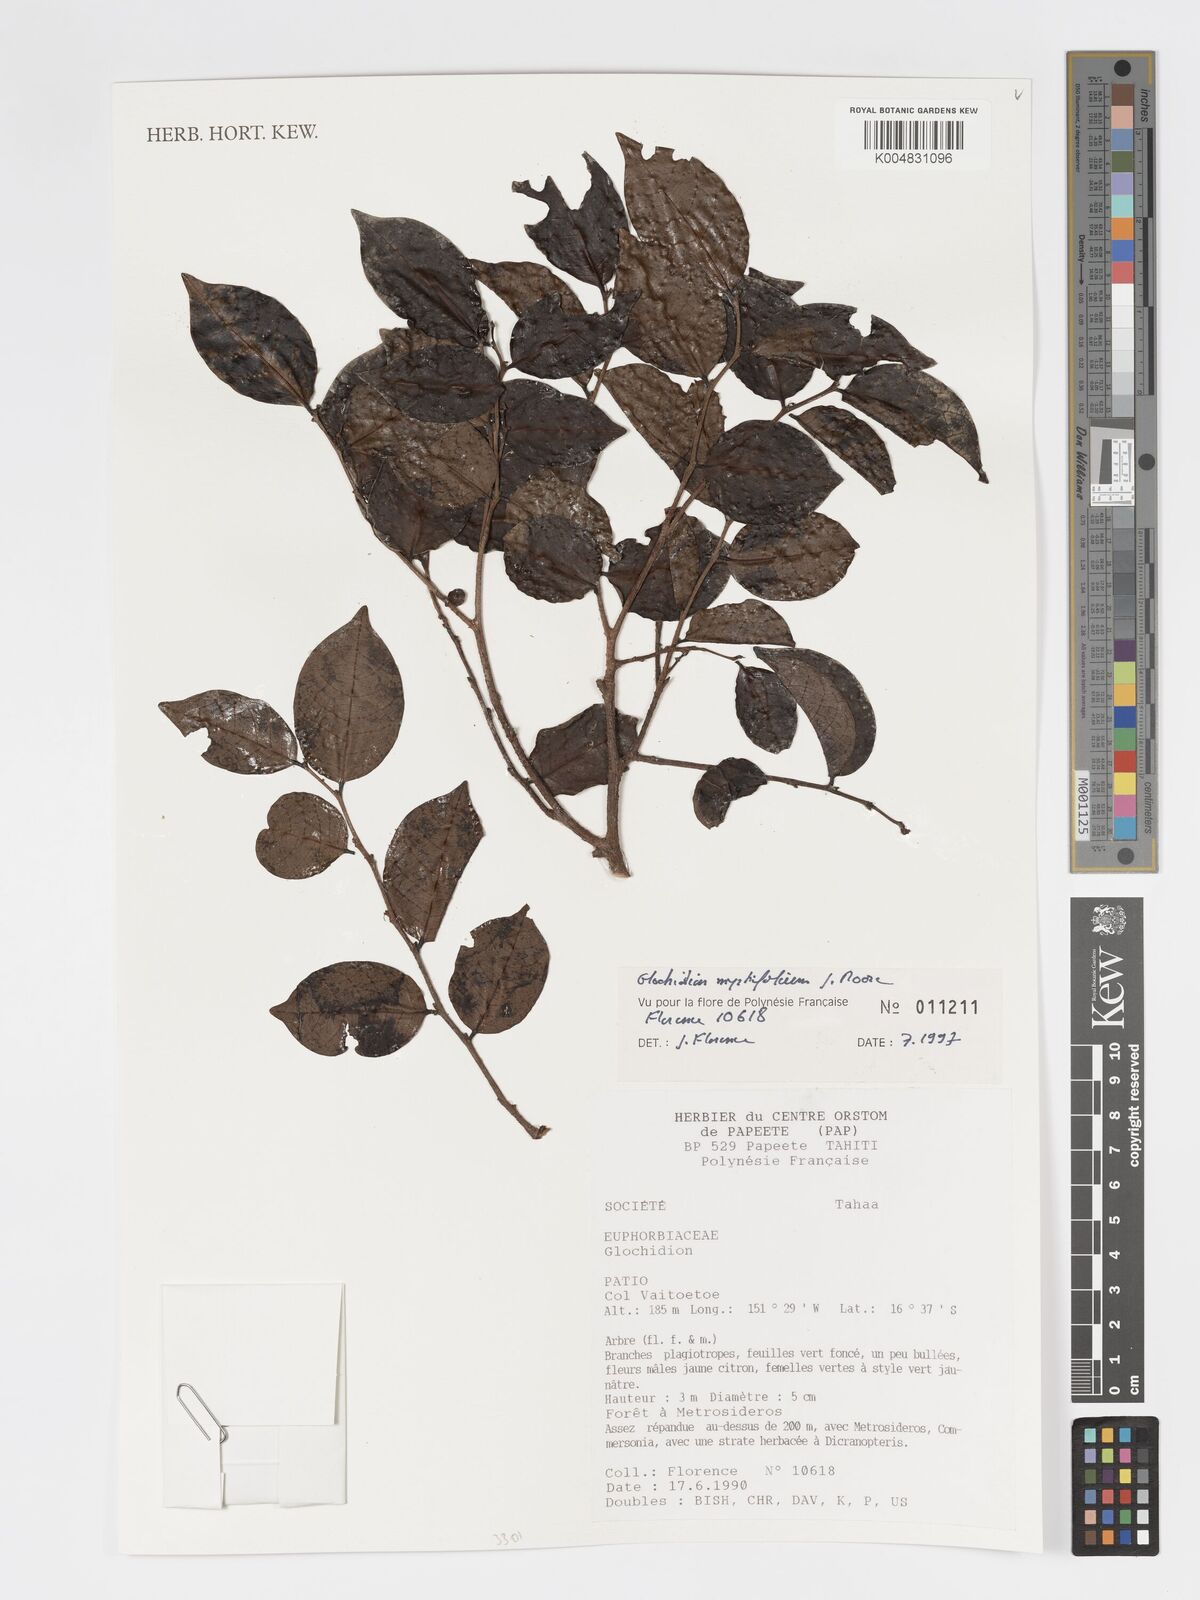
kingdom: Plantae
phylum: Tracheophyta
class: Magnoliopsida
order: Malpighiales
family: Phyllanthaceae
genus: Glochidion
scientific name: Glochidion myrtifolium
